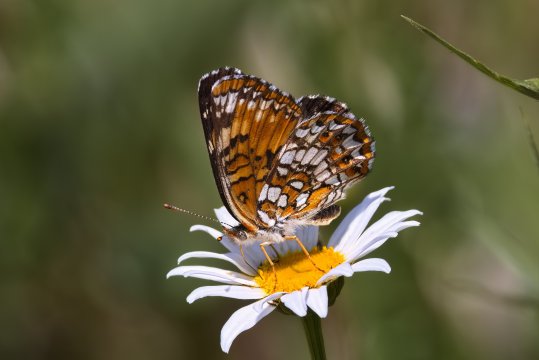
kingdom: Animalia
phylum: Arthropoda
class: Insecta
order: Lepidoptera
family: Nymphalidae
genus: Chlosyne
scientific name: Chlosyne harrisii
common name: Harris's Checkerspot
